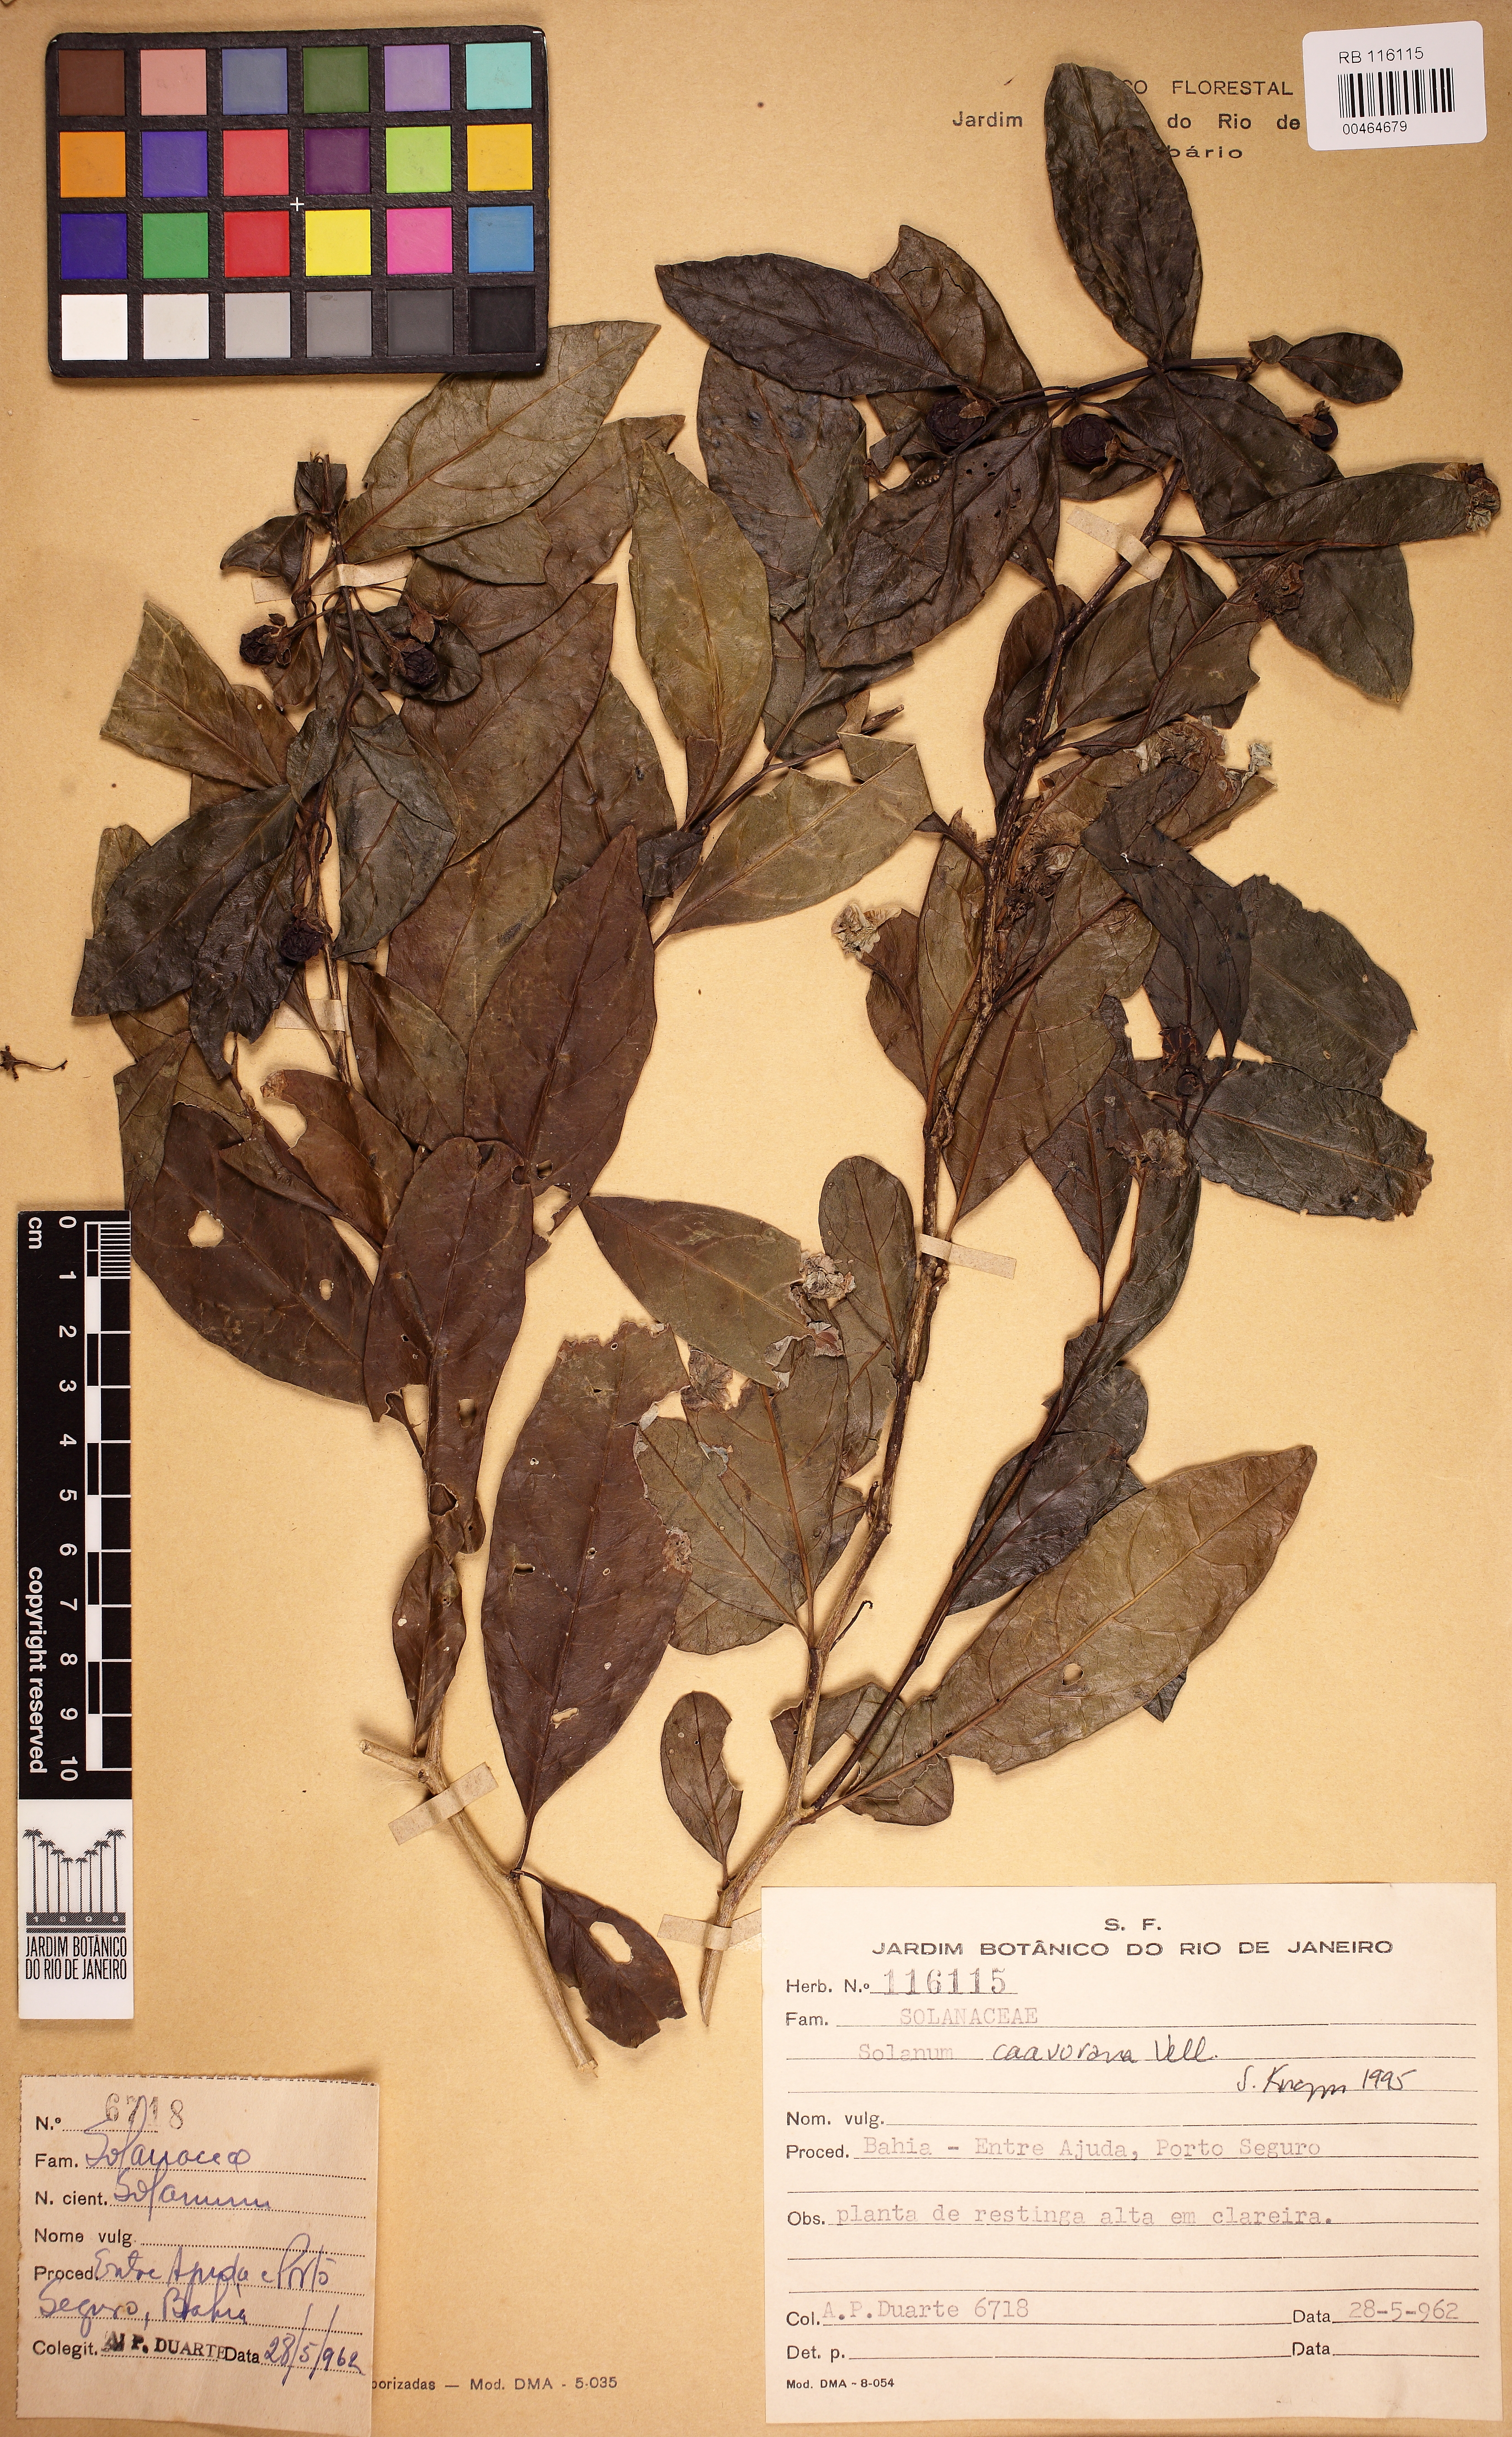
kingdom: Plantae
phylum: Tracheophyta
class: Magnoliopsida
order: Solanales
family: Solanaceae
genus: Solanum
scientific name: Solanum caavurana
